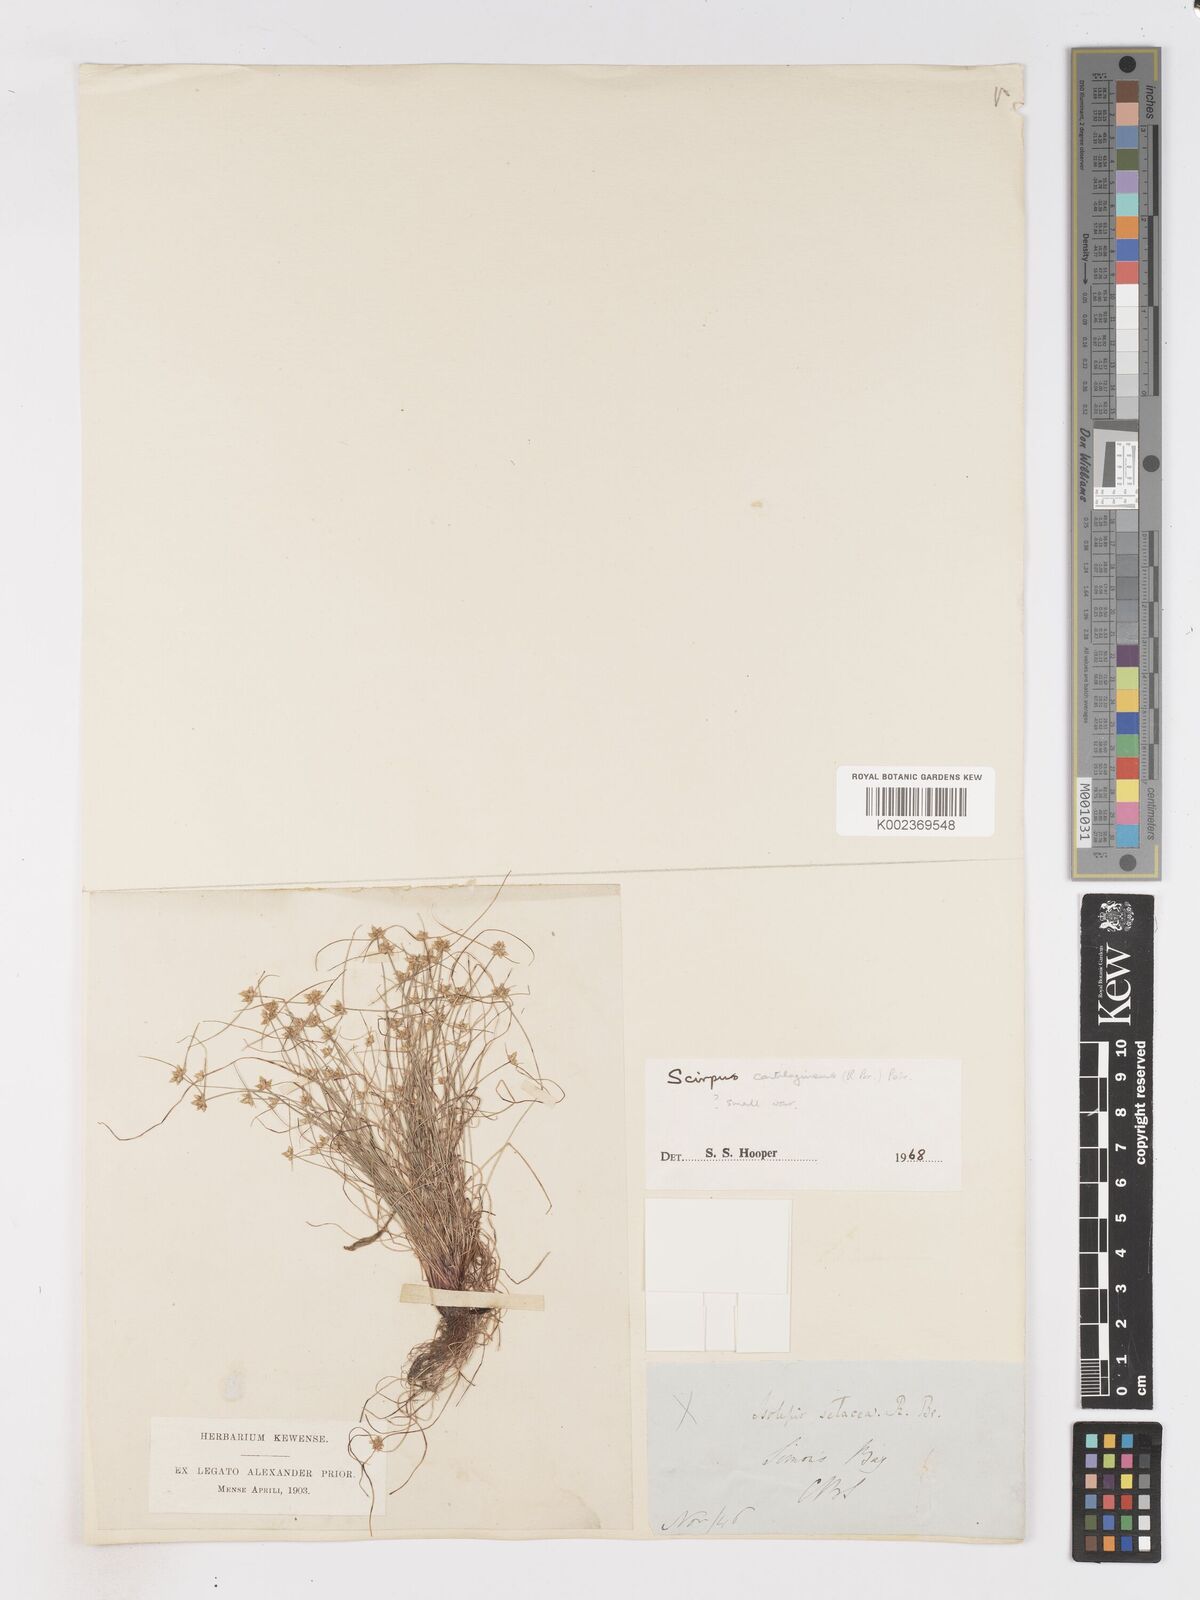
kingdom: Plantae
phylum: Tracheophyta
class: Liliopsida
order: Poales
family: Cyperaceae
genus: Isolepis
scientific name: Isolepis marginata
